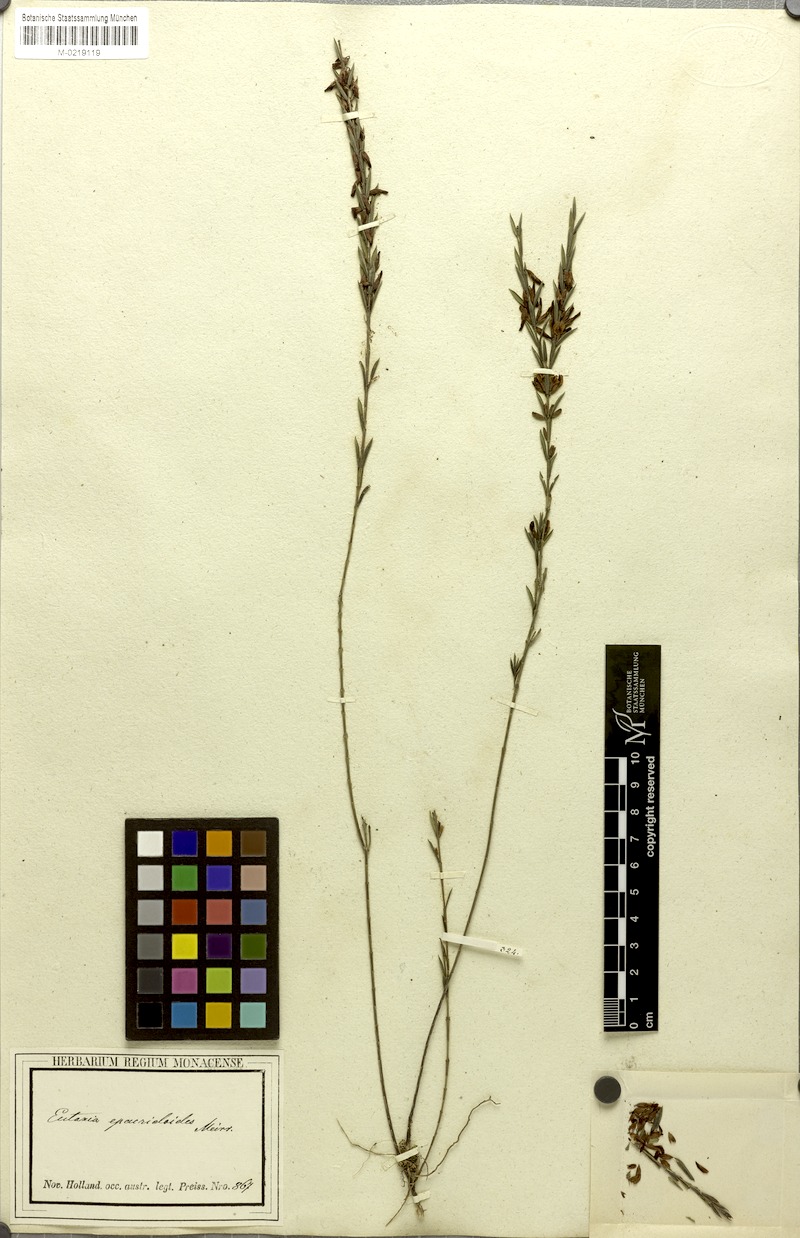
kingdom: Plantae
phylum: Tracheophyta
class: Magnoliopsida
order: Fabales
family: Fabaceae
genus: Eutaxia
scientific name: Eutaxia epacridoides
